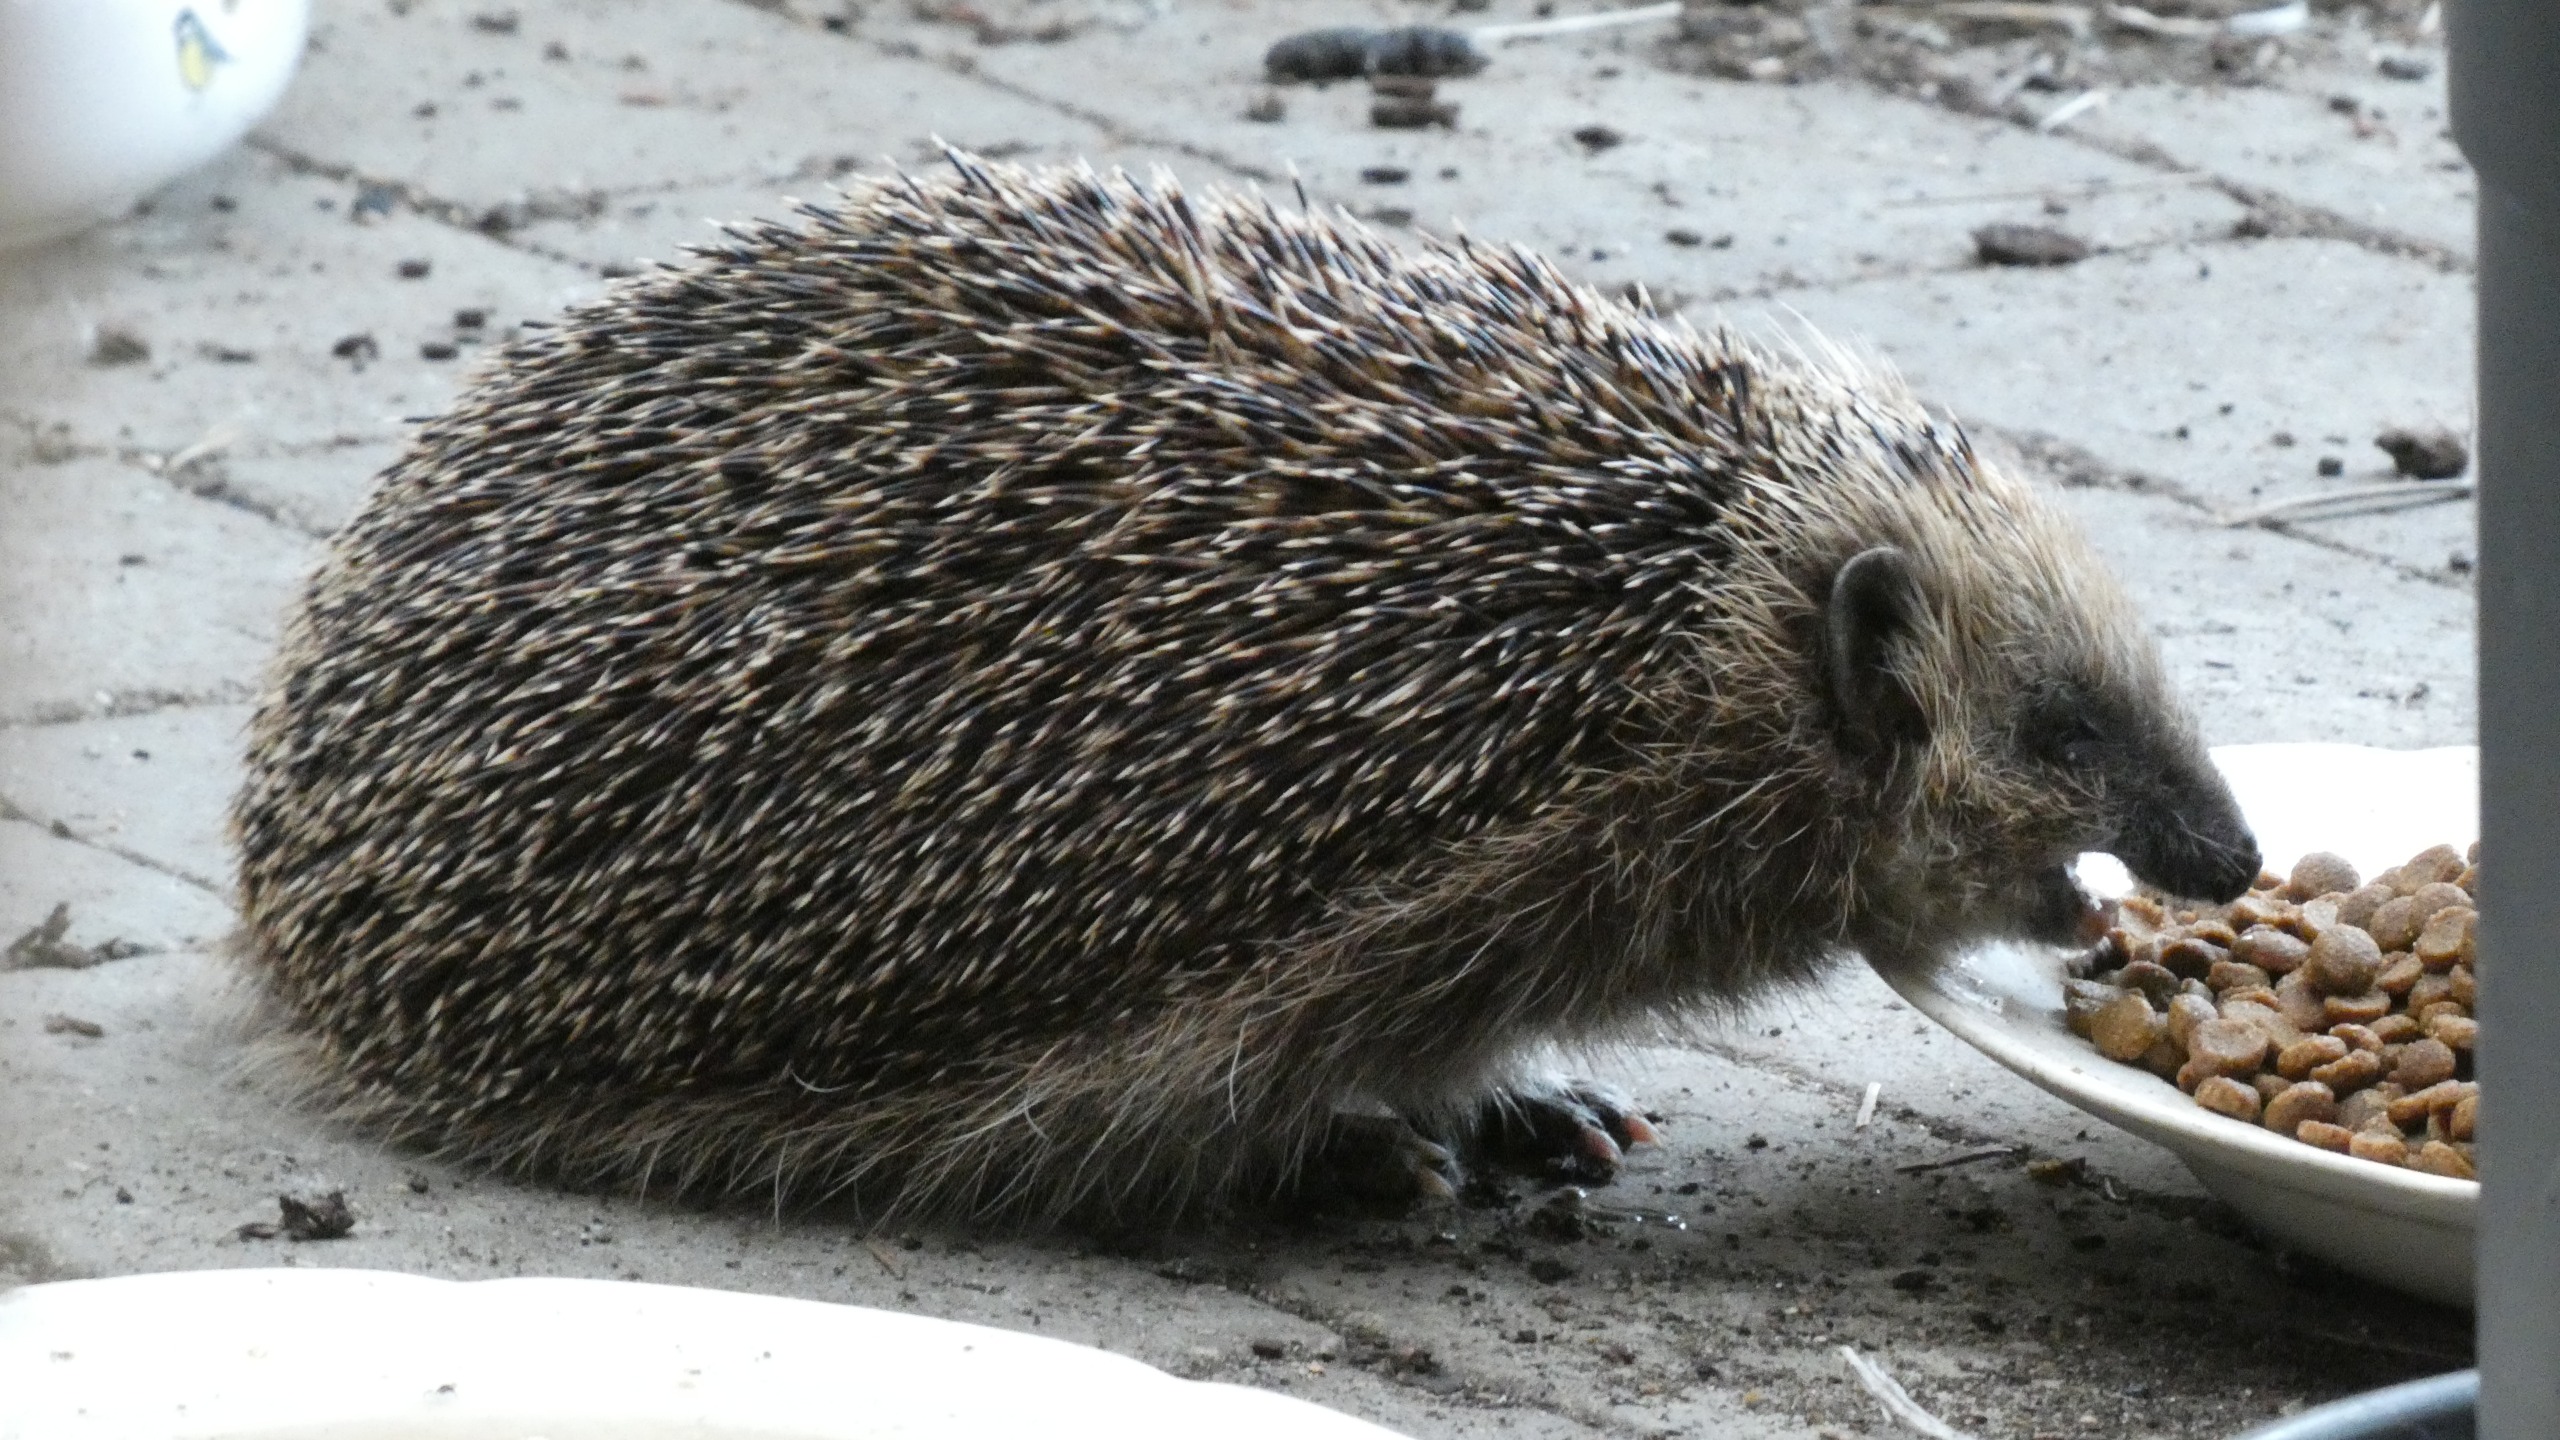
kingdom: Animalia
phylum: Chordata
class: Mammalia
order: Erinaceomorpha
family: Erinaceidae
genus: Erinaceus
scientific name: Erinaceus europaeus
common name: Pindsvin
